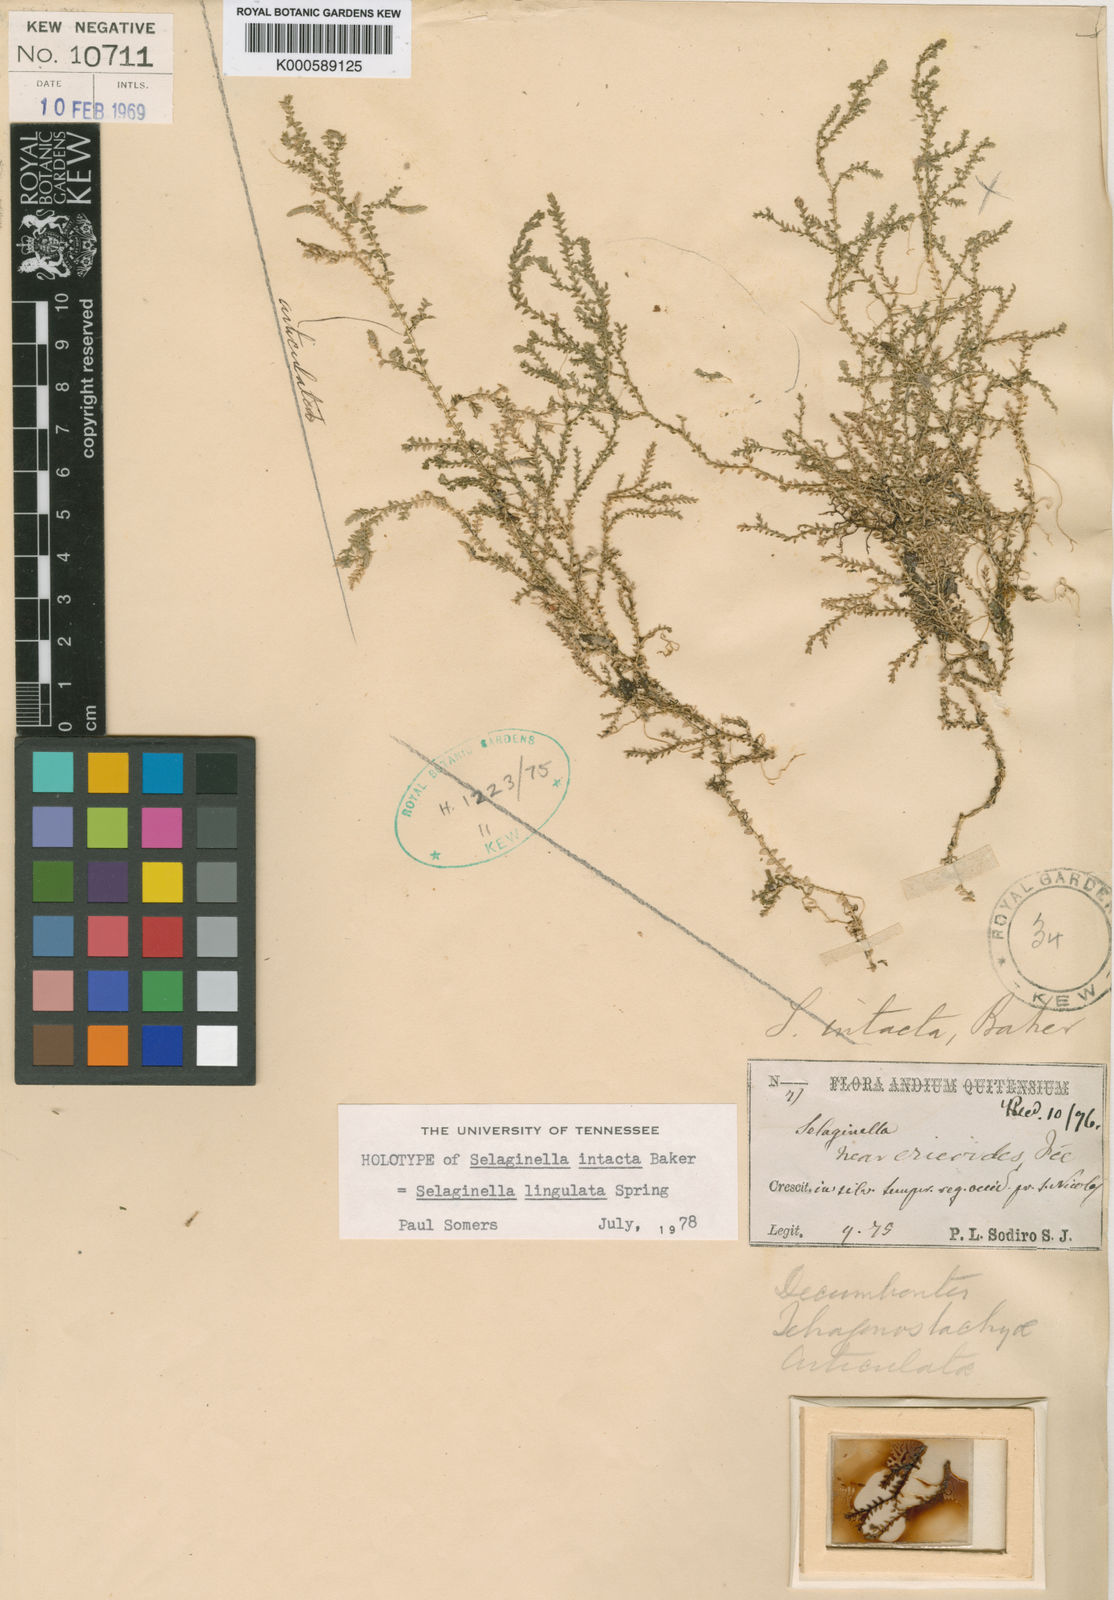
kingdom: Plantae
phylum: Tracheophyta
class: Lycopodiopsida
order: Selaginellales
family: Selaginellaceae
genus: Selaginella
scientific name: Selaginella lingulata
